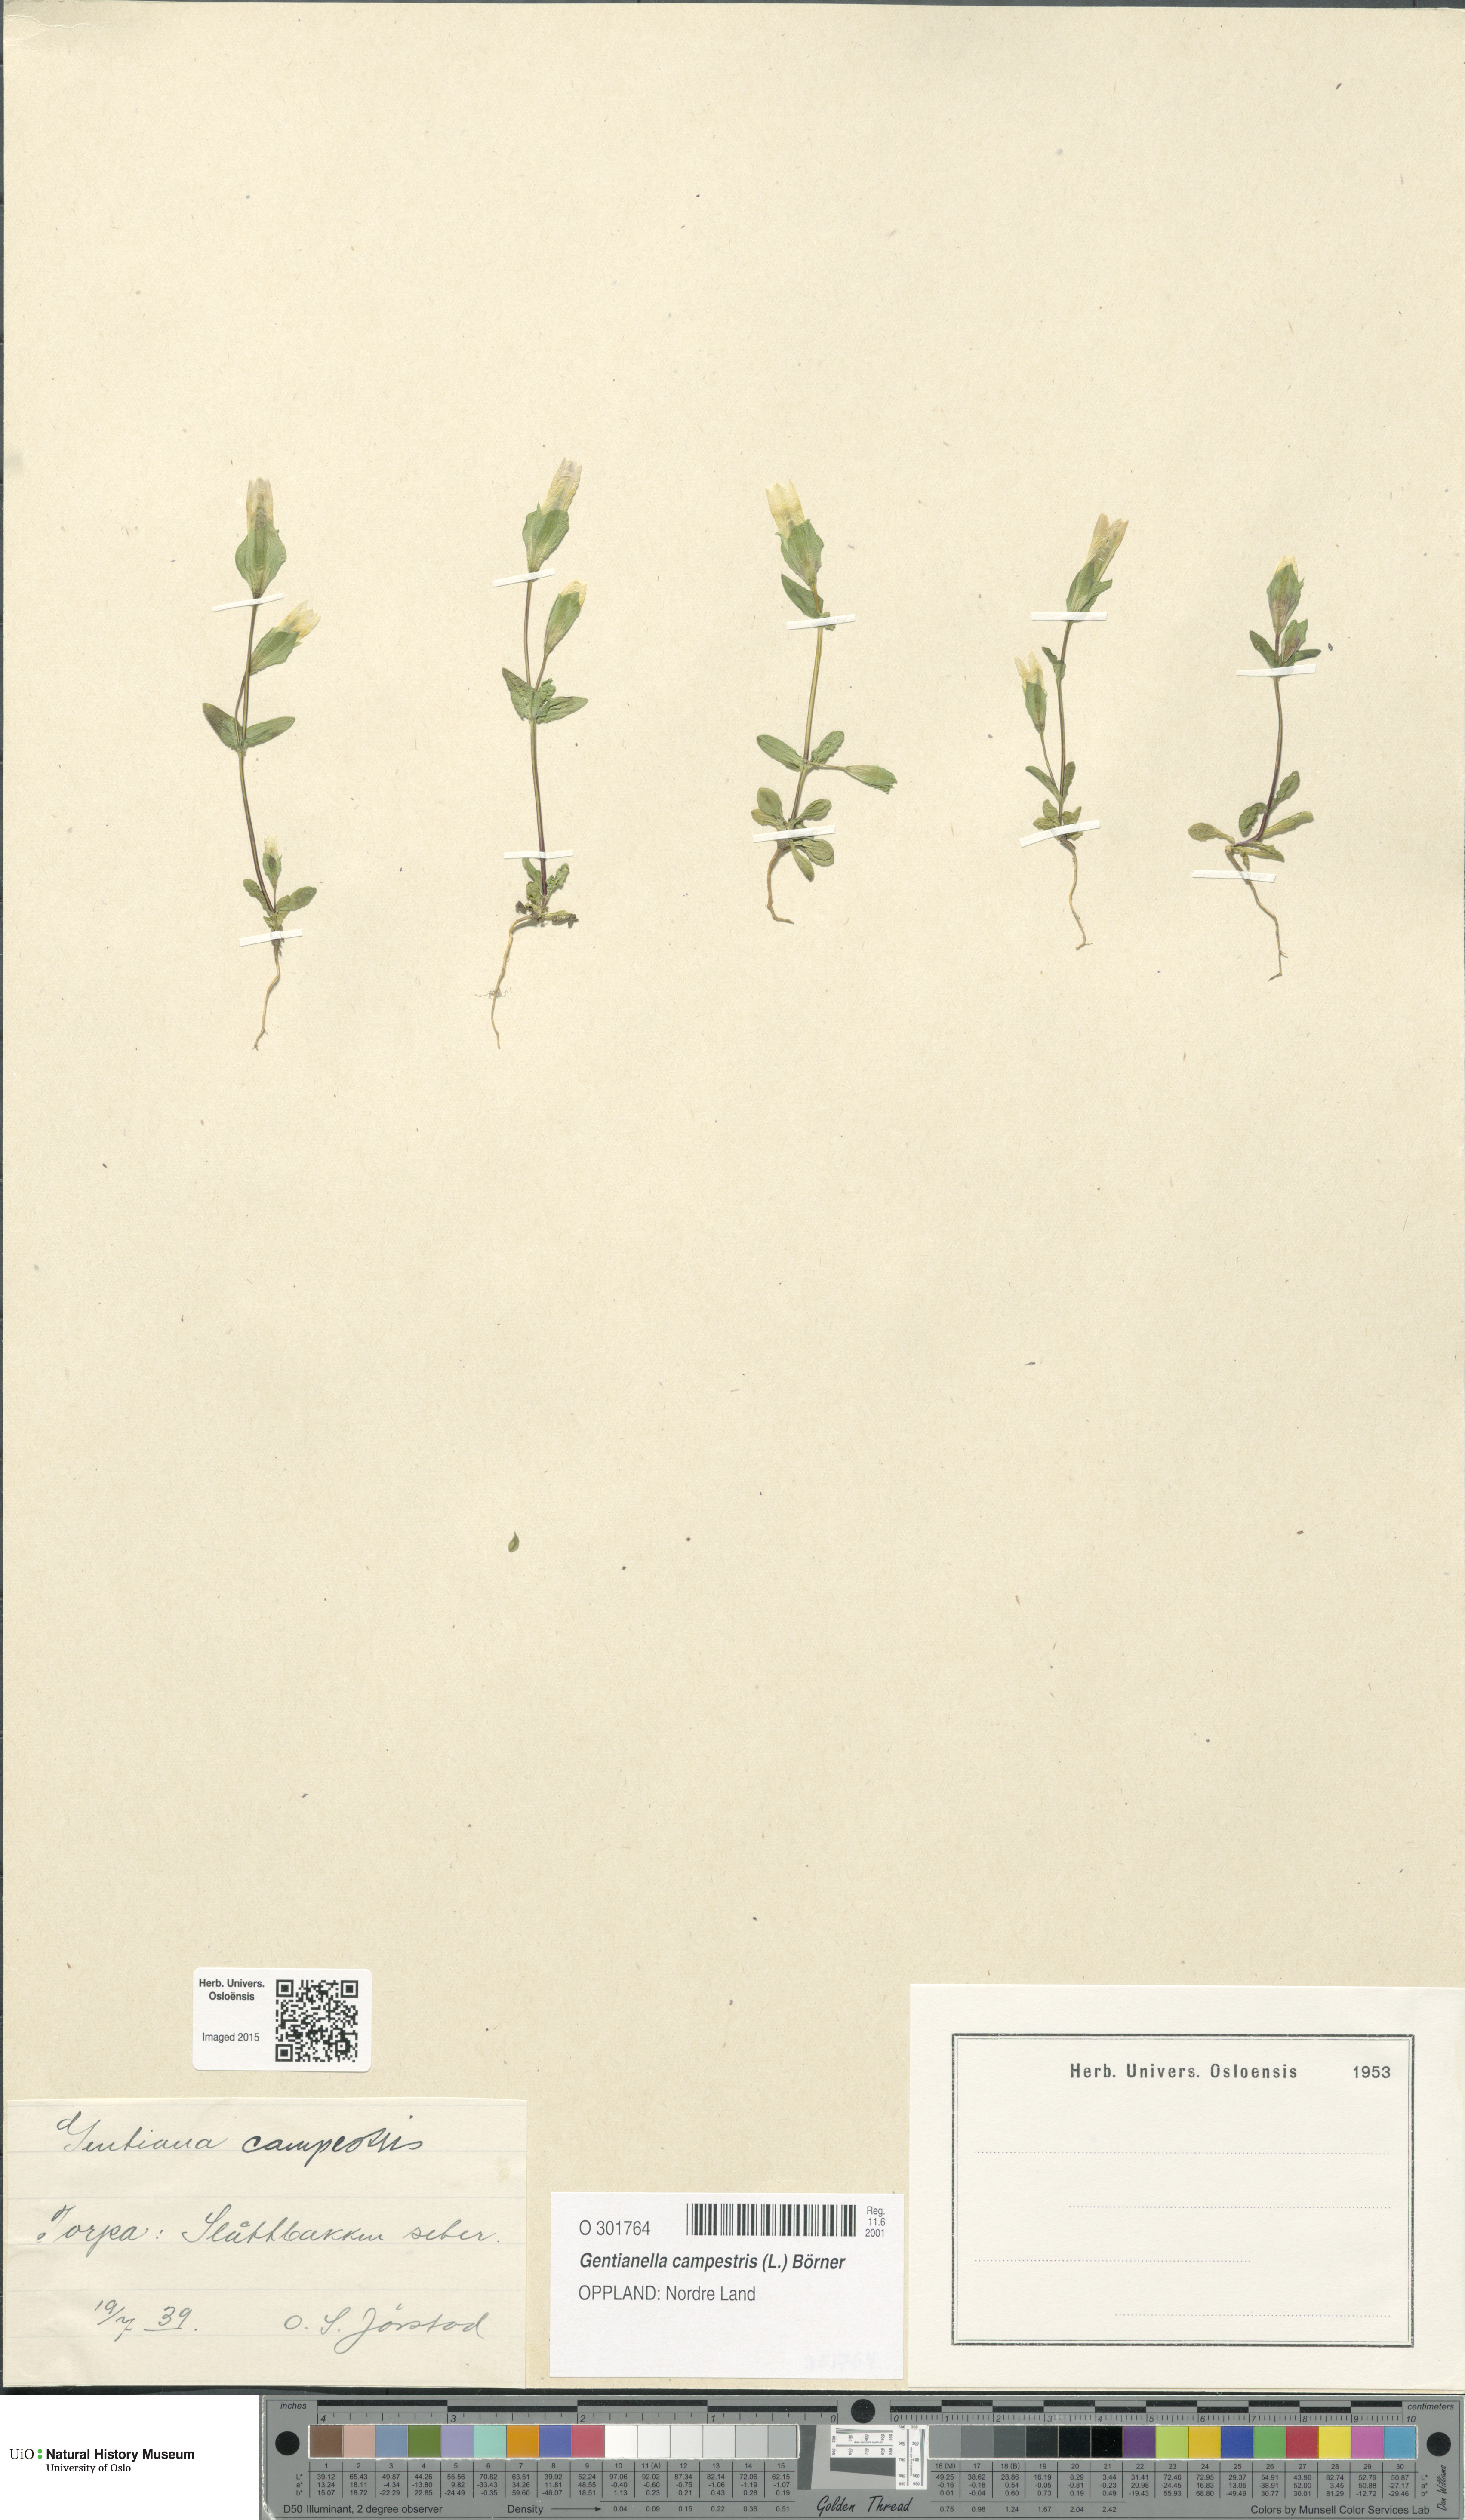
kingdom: Plantae
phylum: Tracheophyta
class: Magnoliopsida
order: Gentianales
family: Gentianaceae
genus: Gentianella
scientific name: Gentianella campestris
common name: Field gentian
